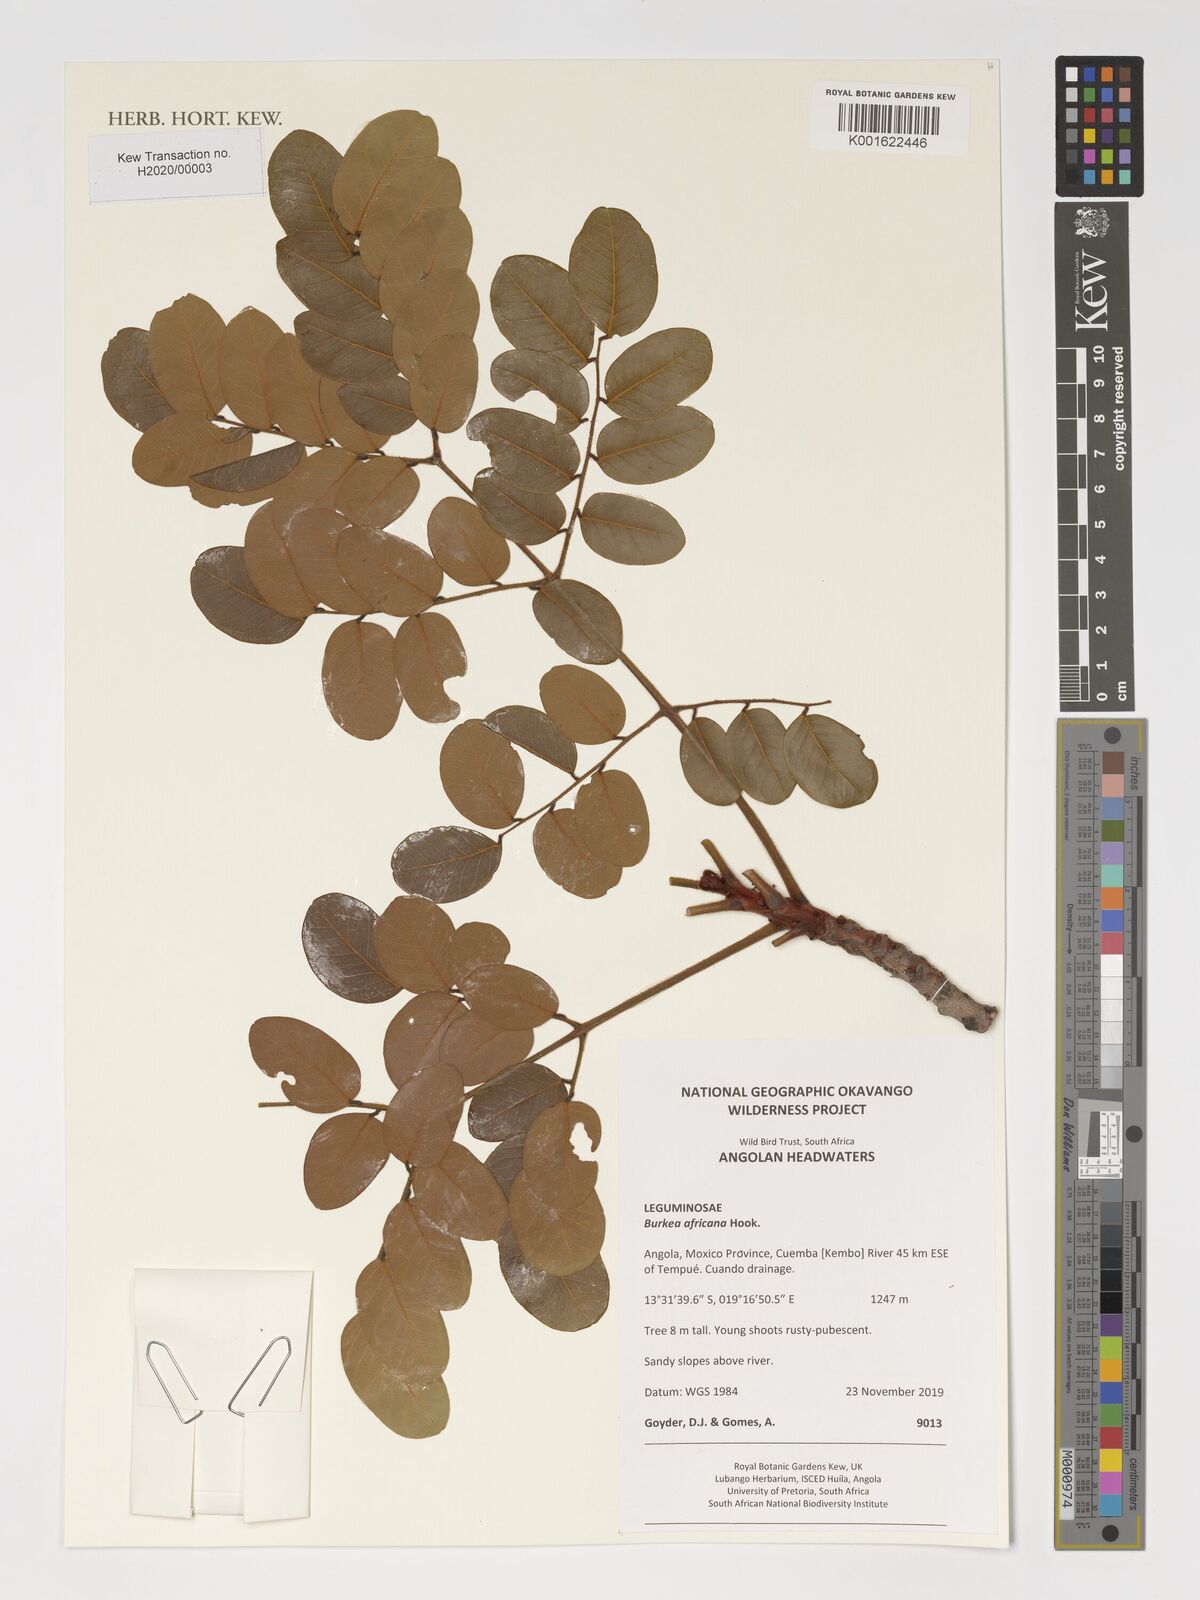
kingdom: Plantae
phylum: Tracheophyta
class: Magnoliopsida
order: Fabales
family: Fabaceae
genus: Burkea
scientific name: Burkea africana
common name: Mkalati tree
